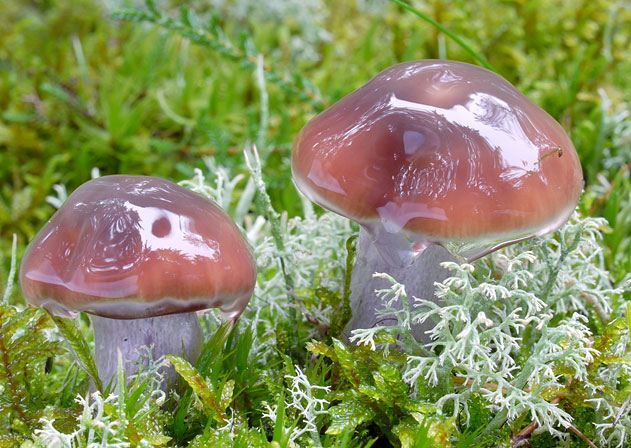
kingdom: Fungi
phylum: Basidiomycota
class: Agaricomycetes
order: Agaricales
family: Cortinariaceae
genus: Cortinarius
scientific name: Cortinarius collinitus
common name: spættet slørhat
